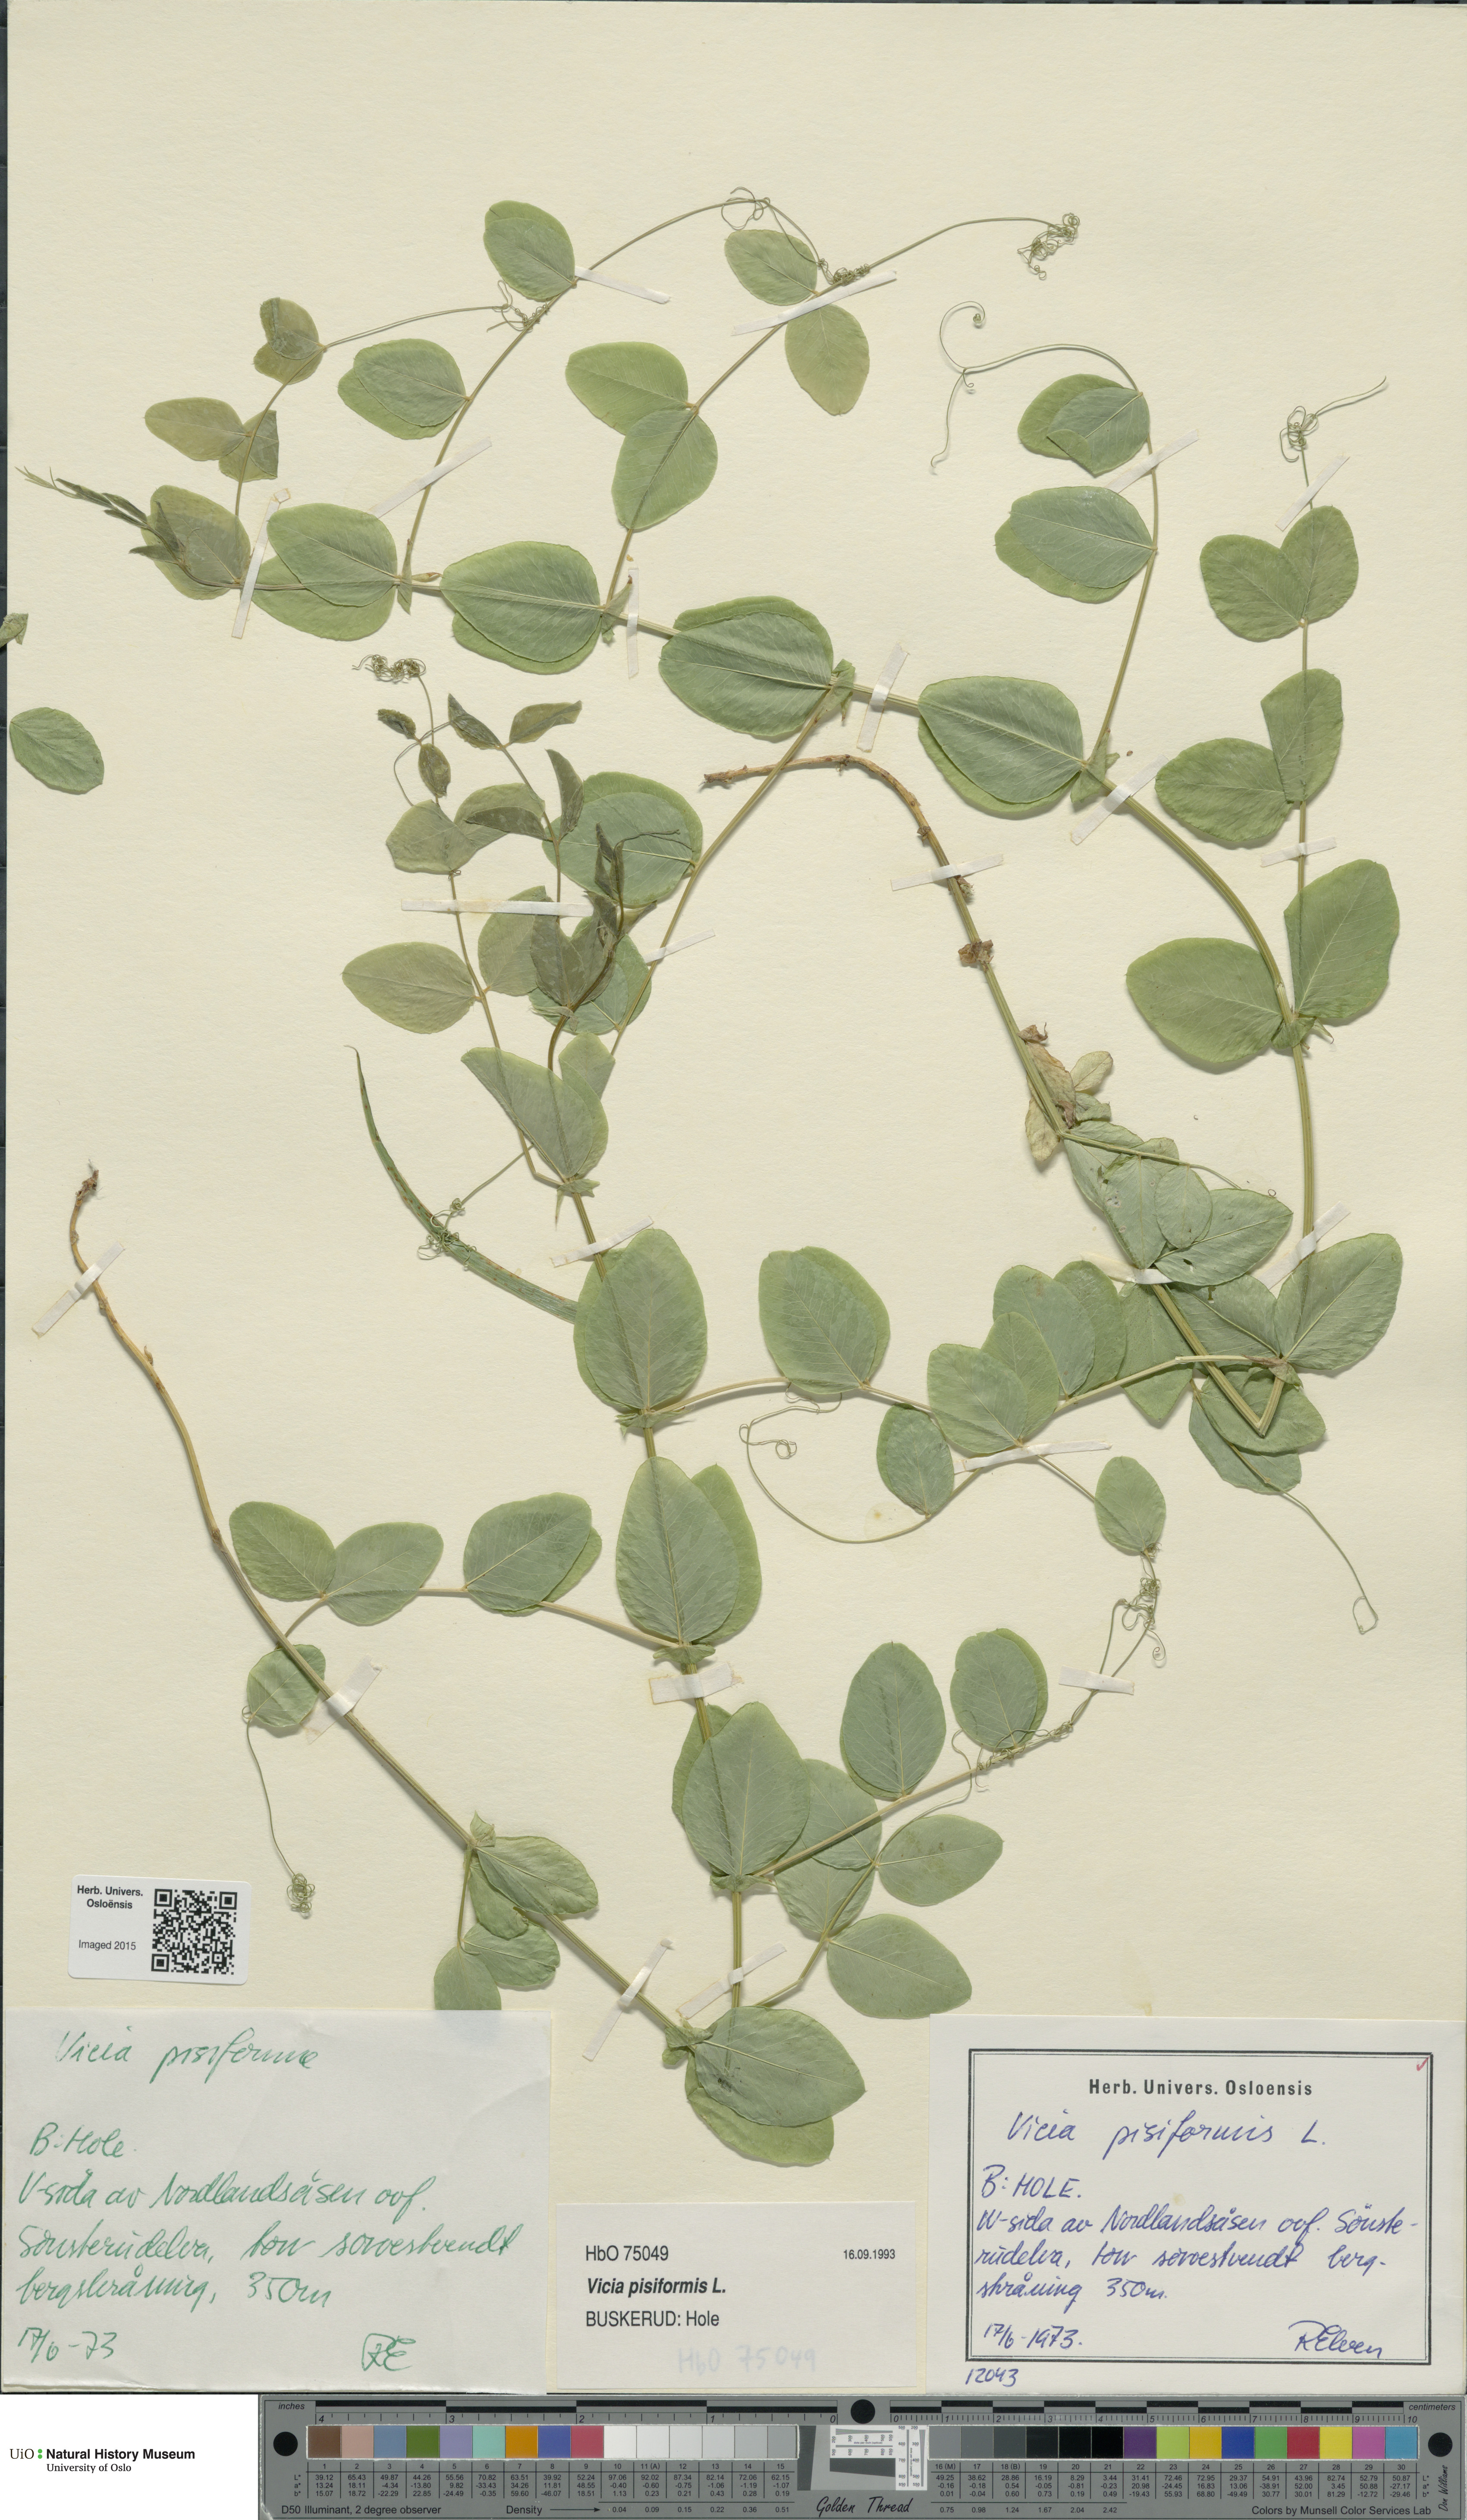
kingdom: Plantae
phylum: Tracheophyta
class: Magnoliopsida
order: Fabales
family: Fabaceae
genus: Vicia
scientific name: Vicia pisiformis
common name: Pale-flower vetch
